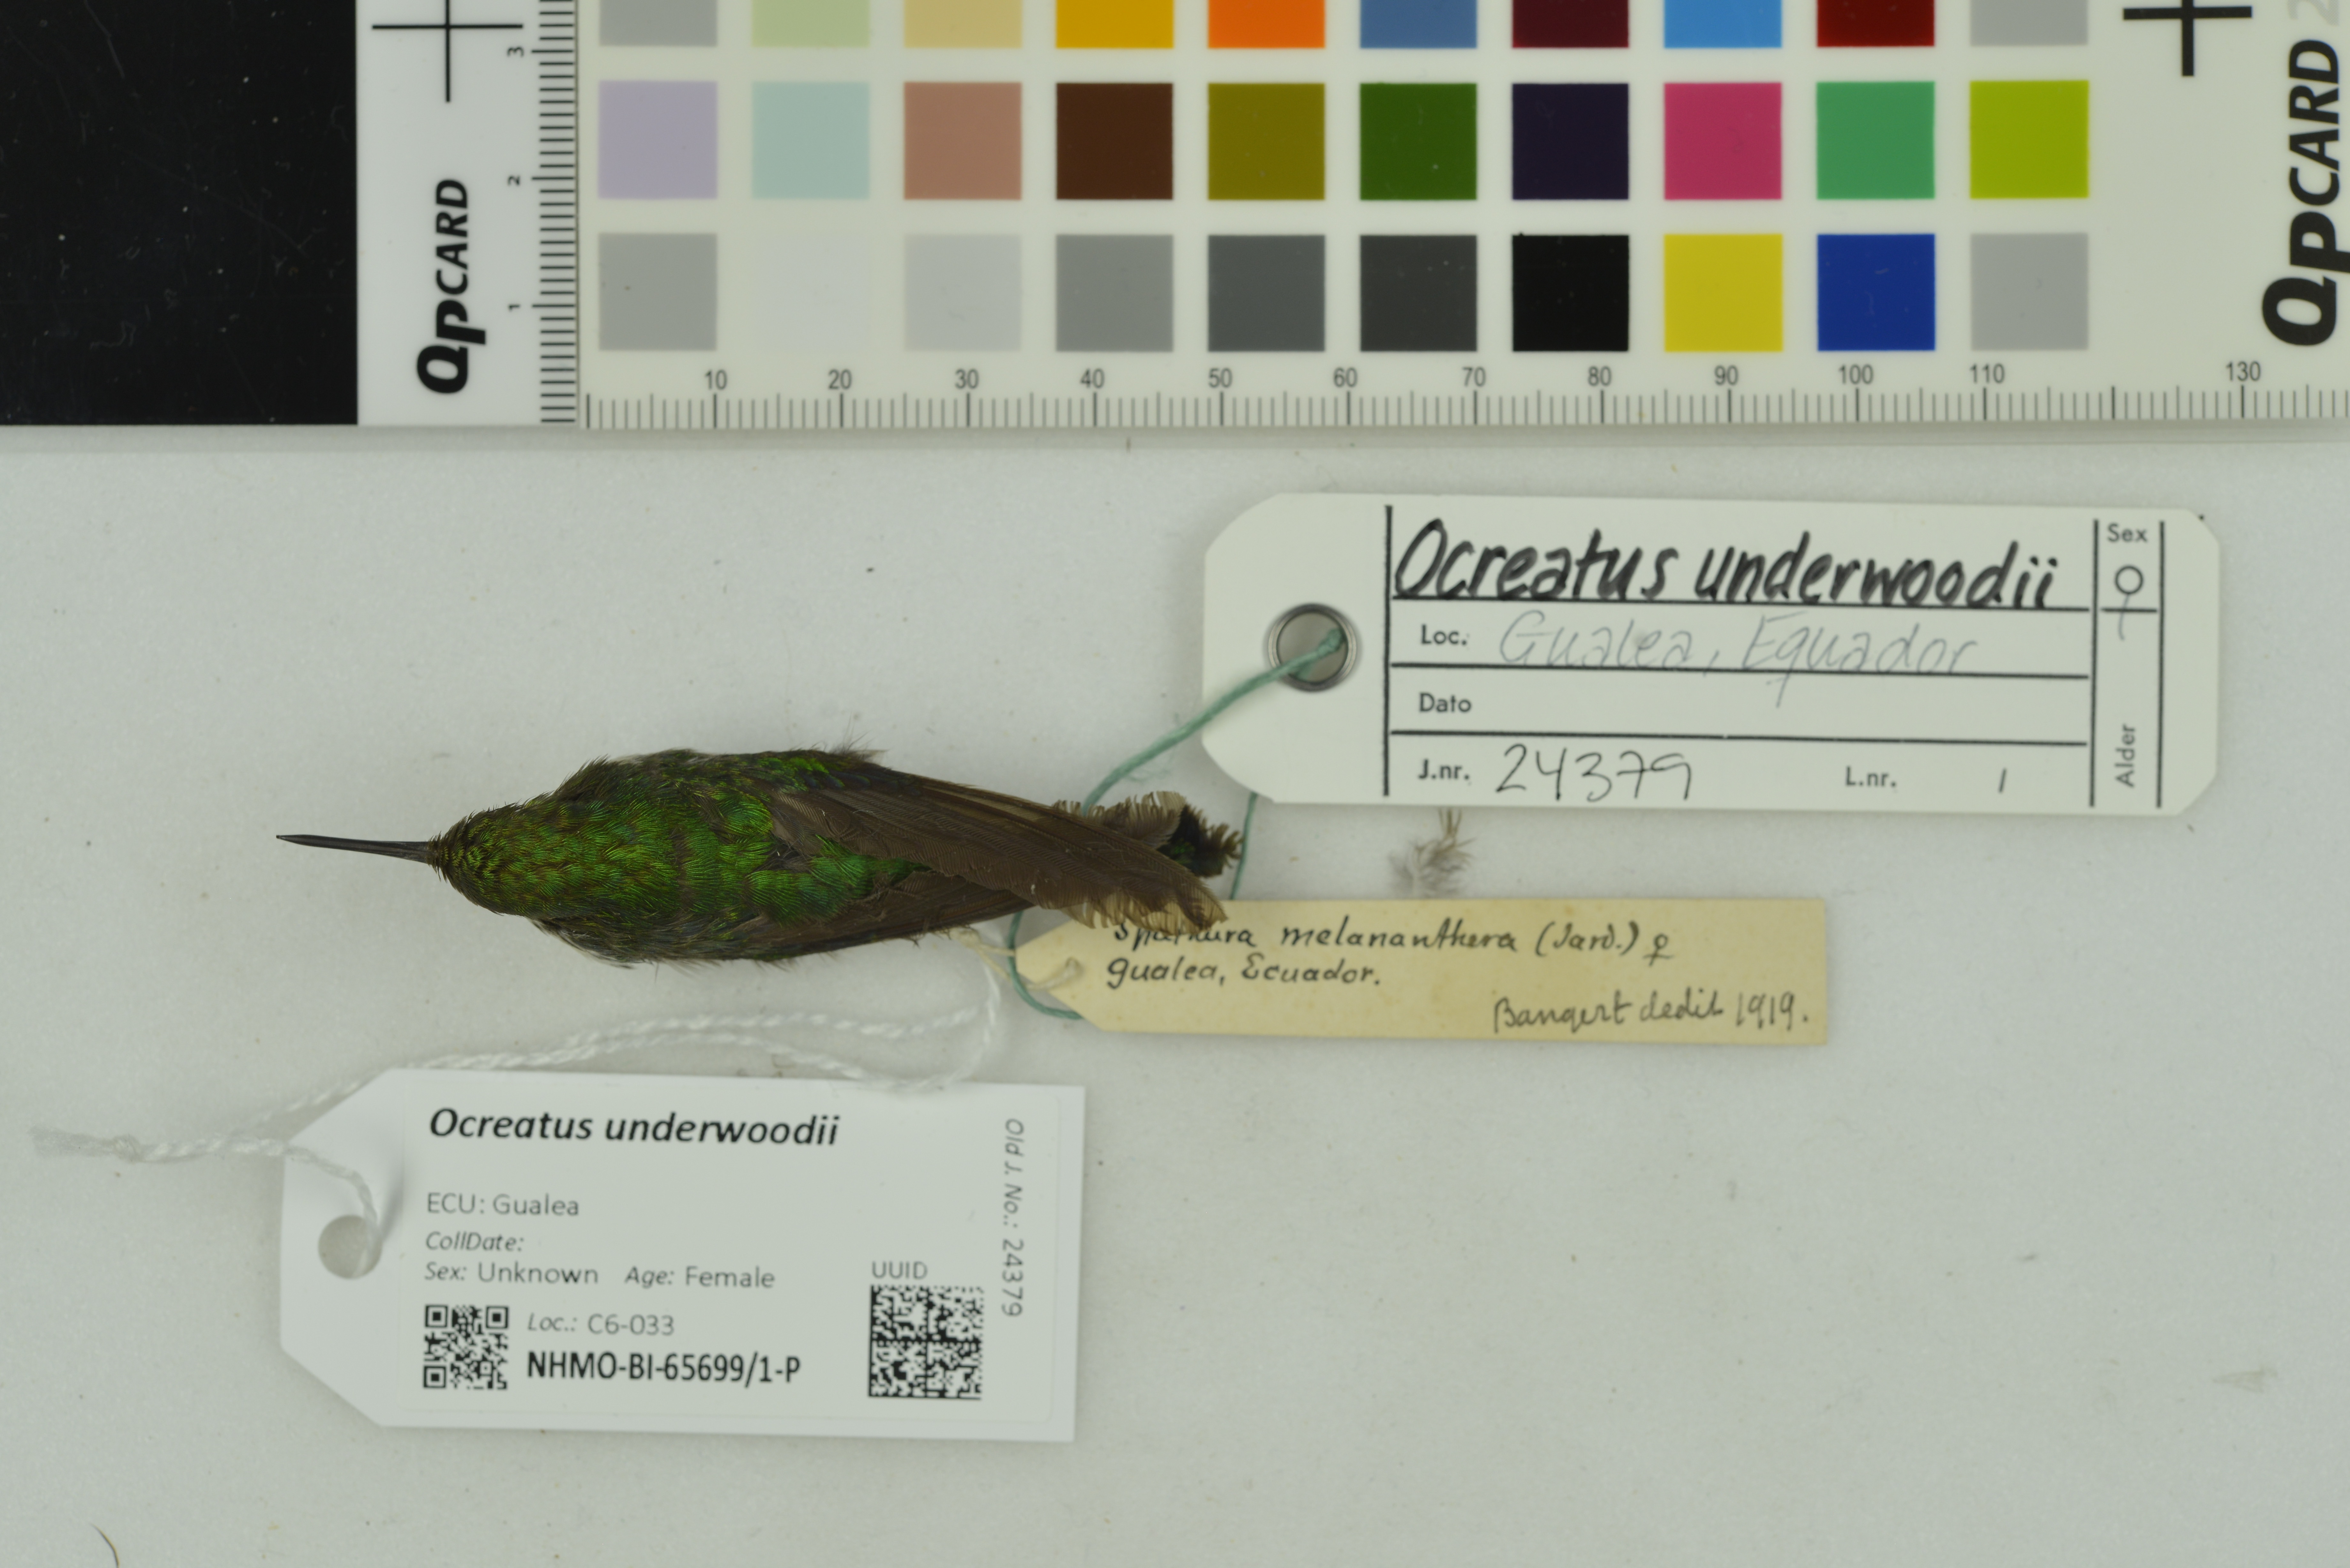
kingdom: Animalia
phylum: Chordata
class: Aves
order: Apodiformes
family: Trochilidae
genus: Ocreatus
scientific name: Ocreatus underwoodii
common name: Booted racket-tail
